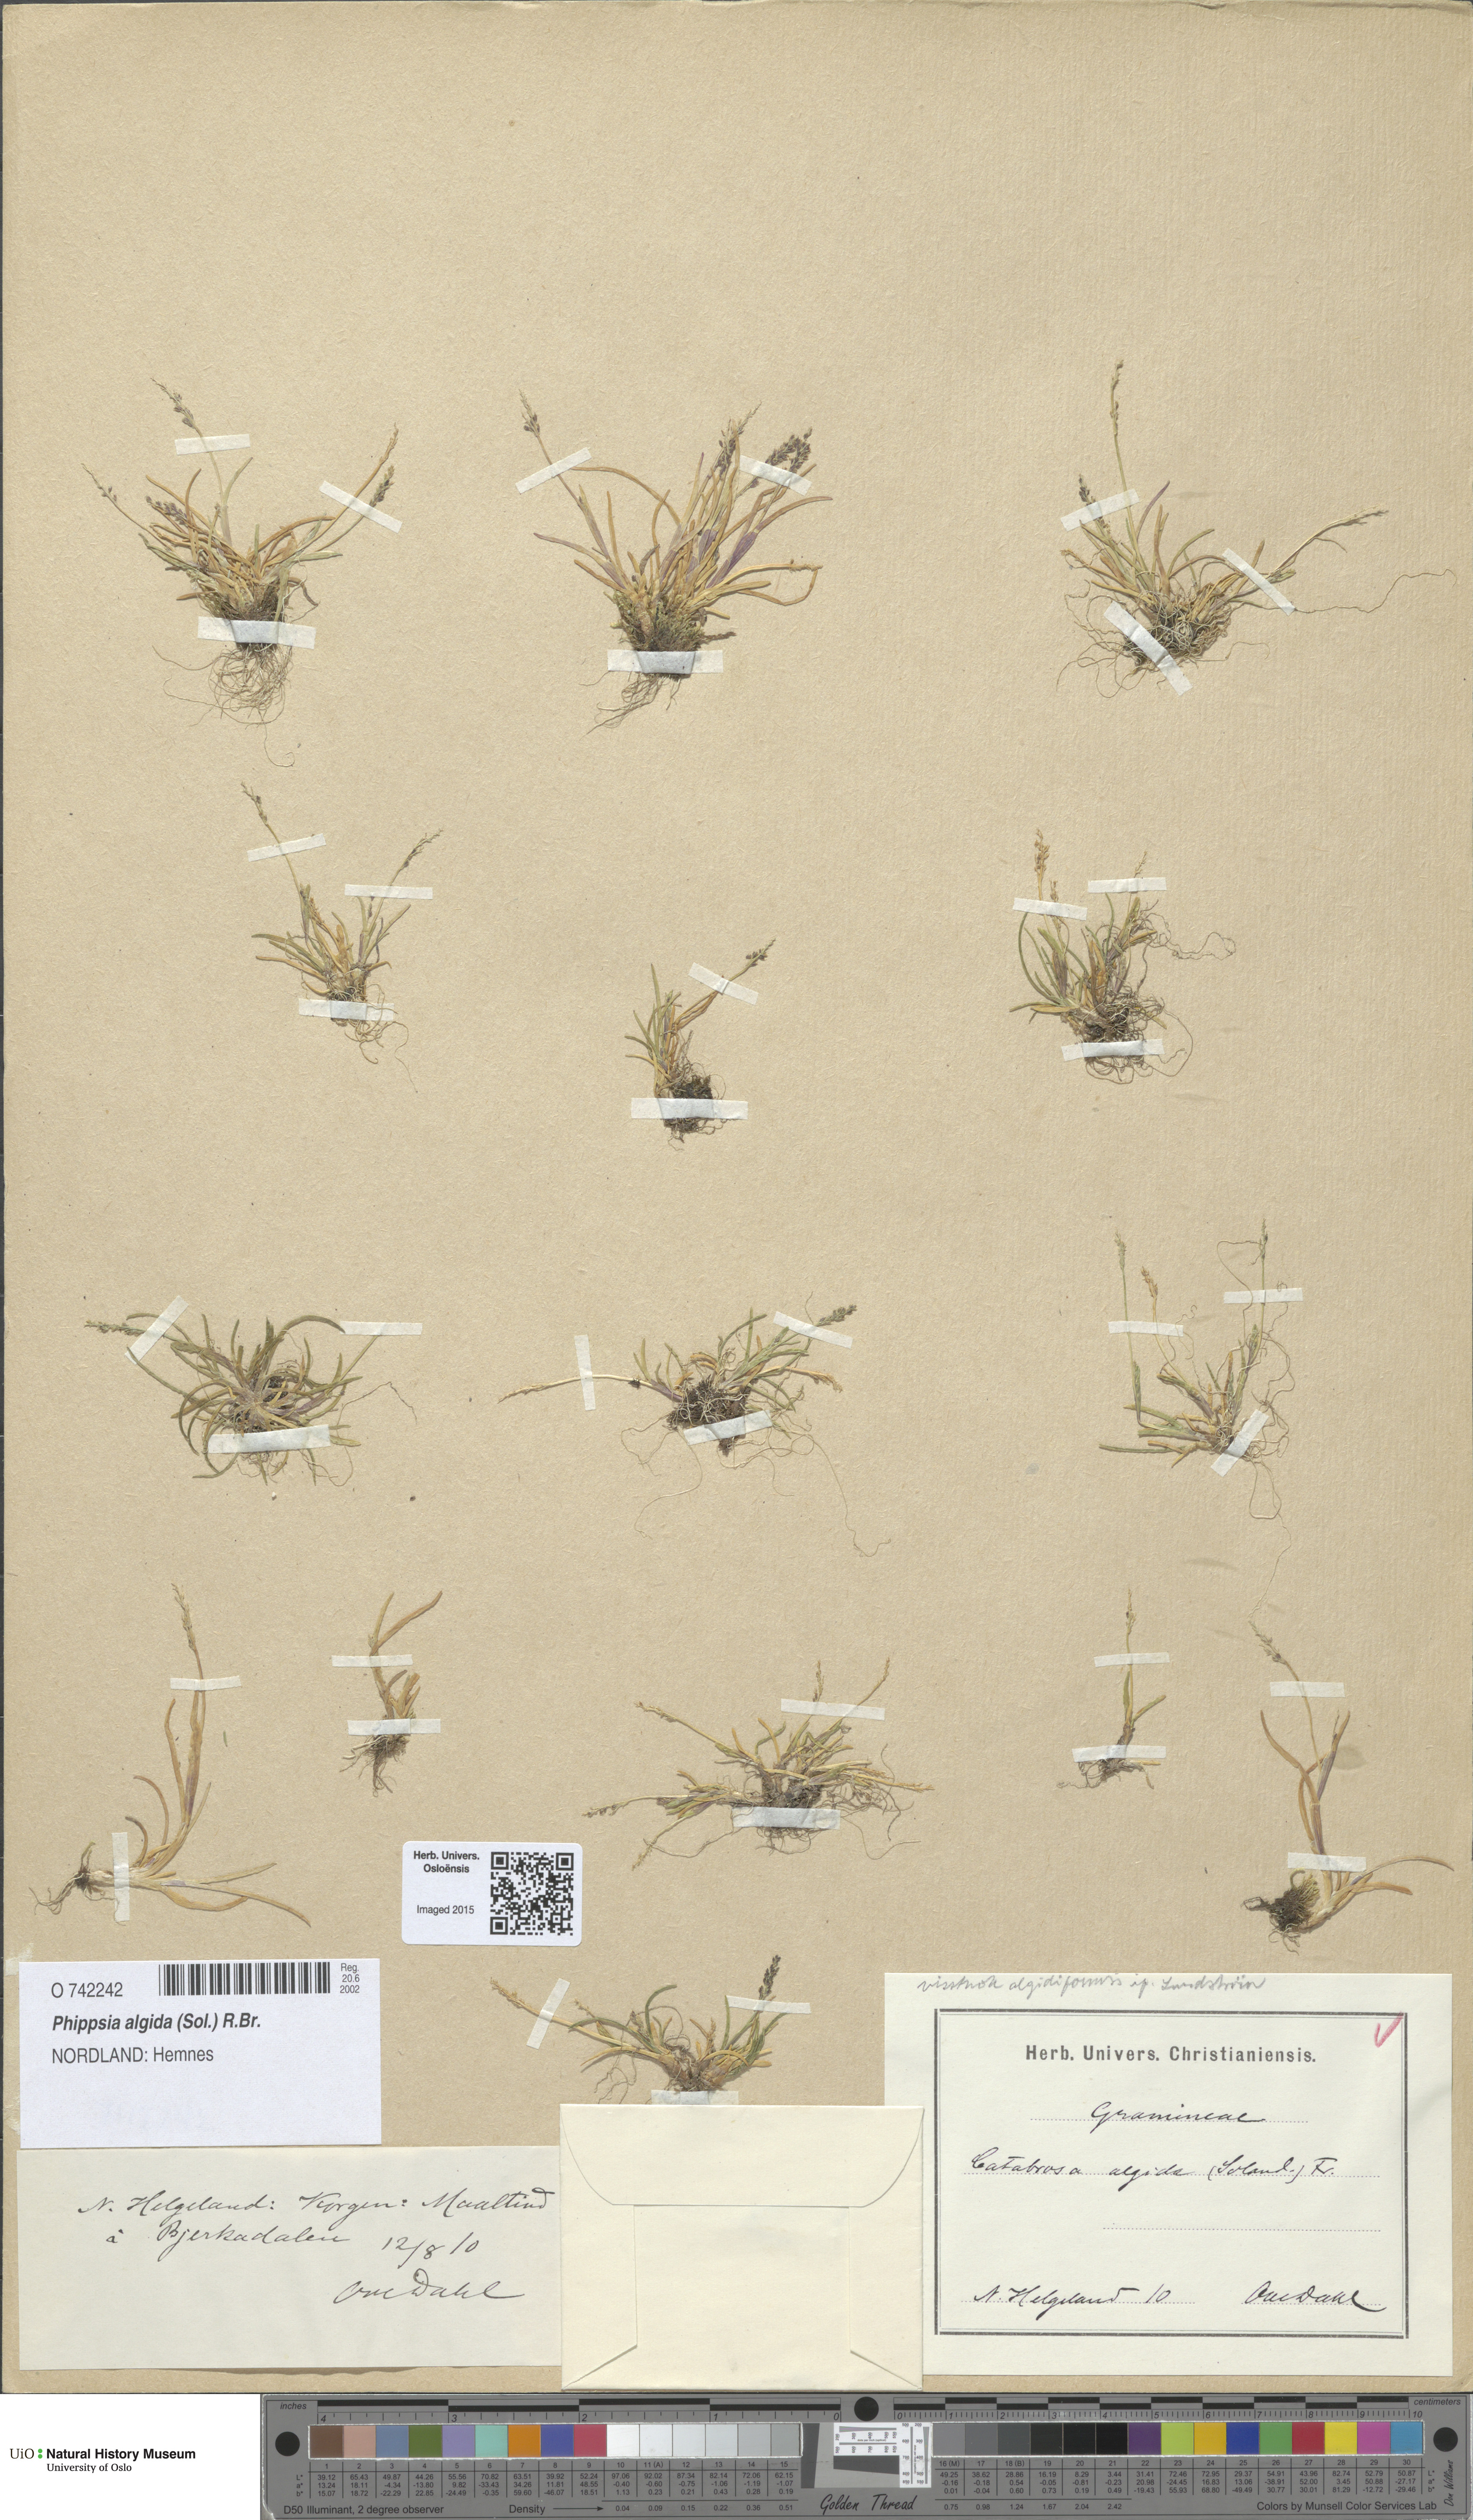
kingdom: Plantae
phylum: Tracheophyta
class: Liliopsida
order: Poales
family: Poaceae
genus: Phippsia
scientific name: Phippsia algida
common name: Ice grass
